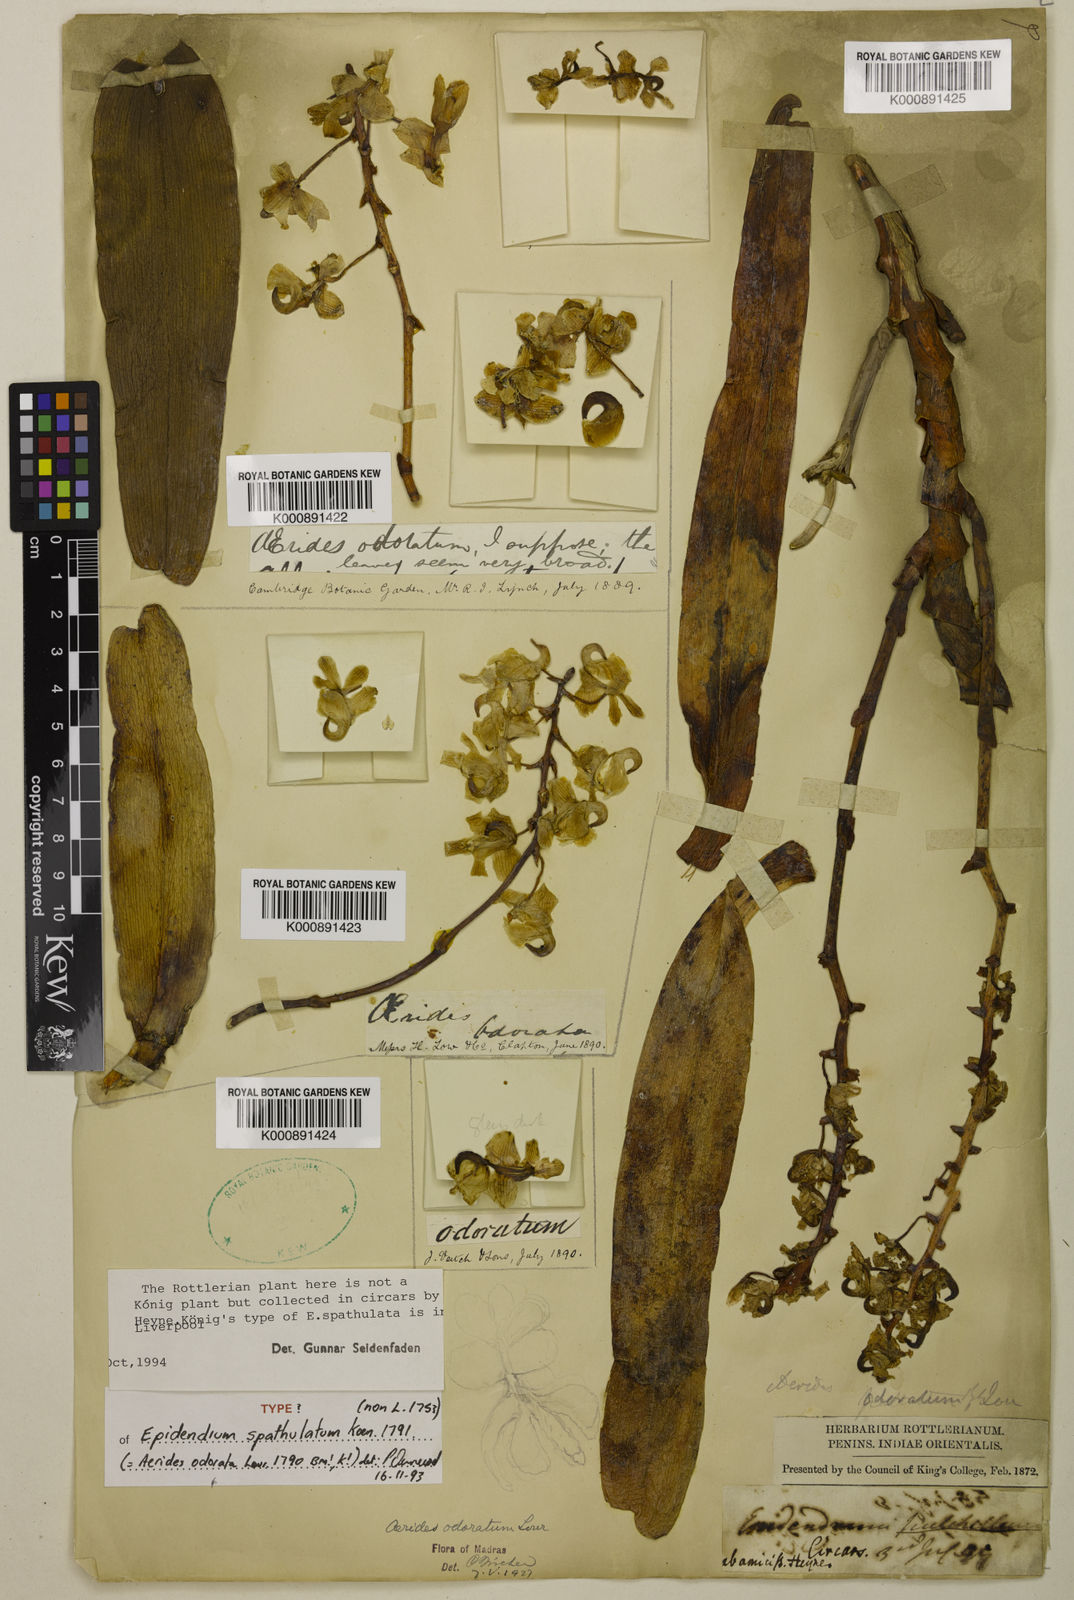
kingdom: Plantae
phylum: Tracheophyta
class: Liliopsida
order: Asparagales
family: Orchidaceae
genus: Aerides
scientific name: Aerides odorata
